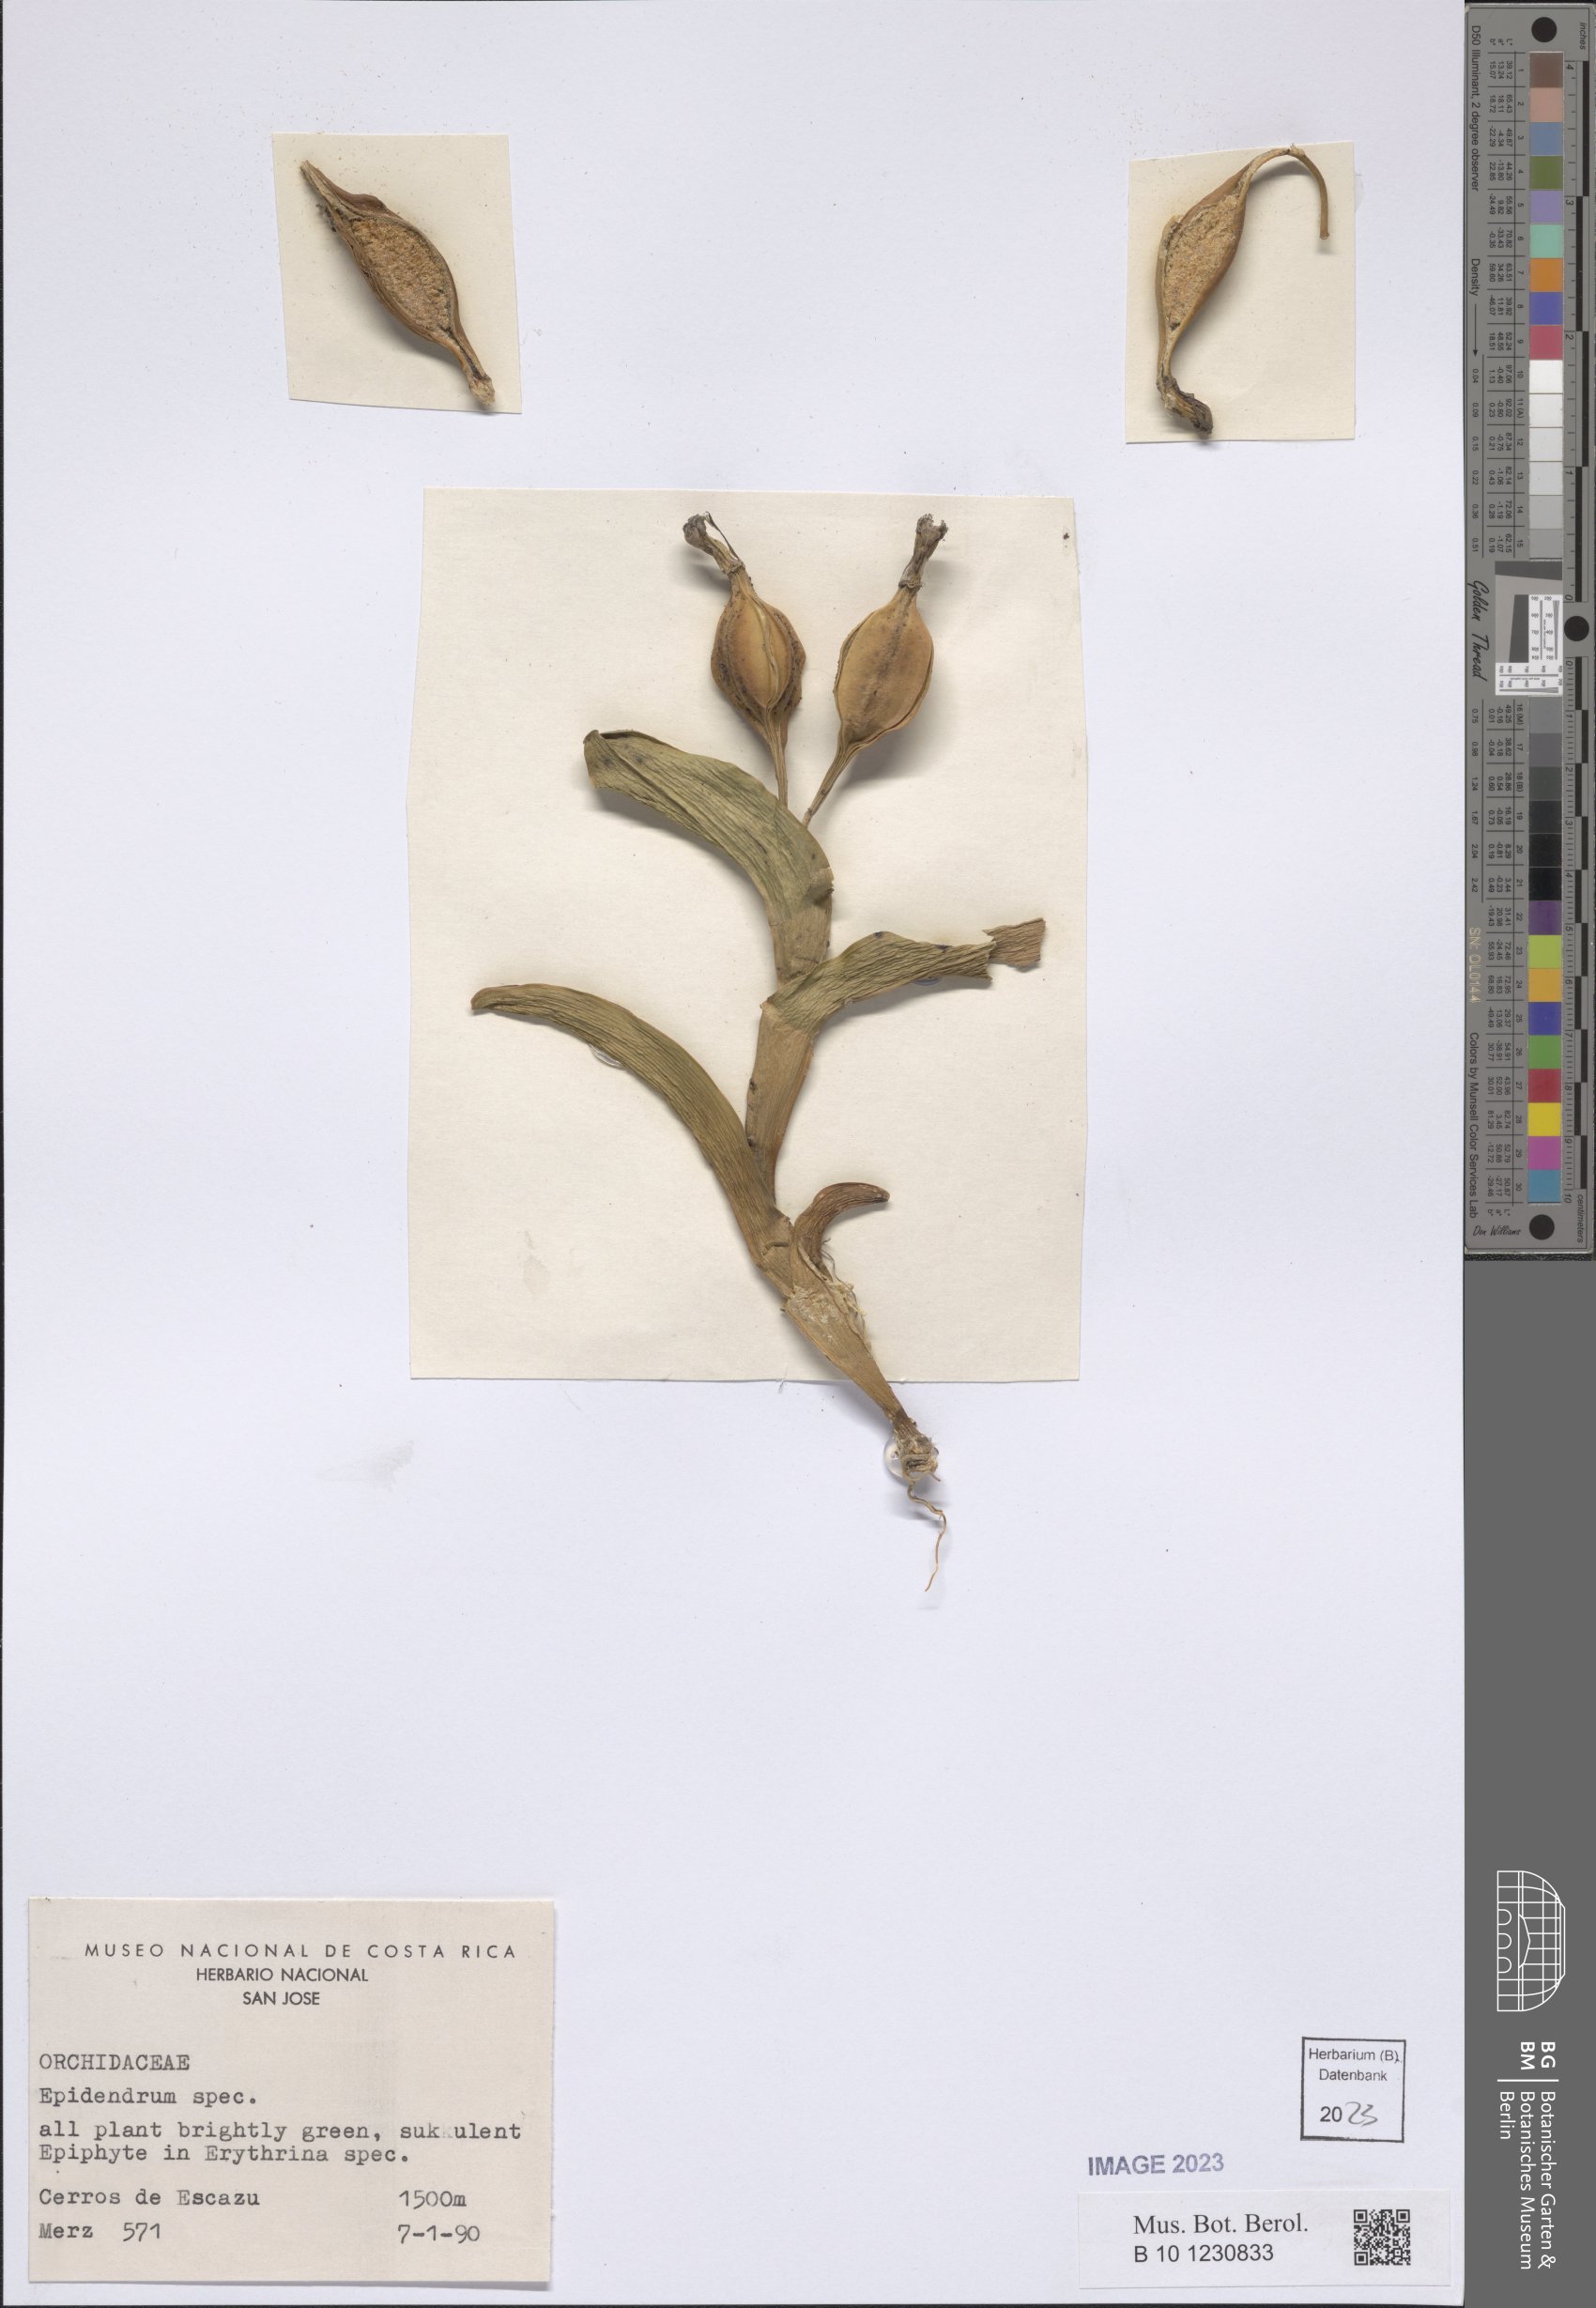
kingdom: Plantae
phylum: Tracheophyta
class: Liliopsida
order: Asparagales
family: Orchidaceae
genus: Epidendrum
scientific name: Epidendrum
